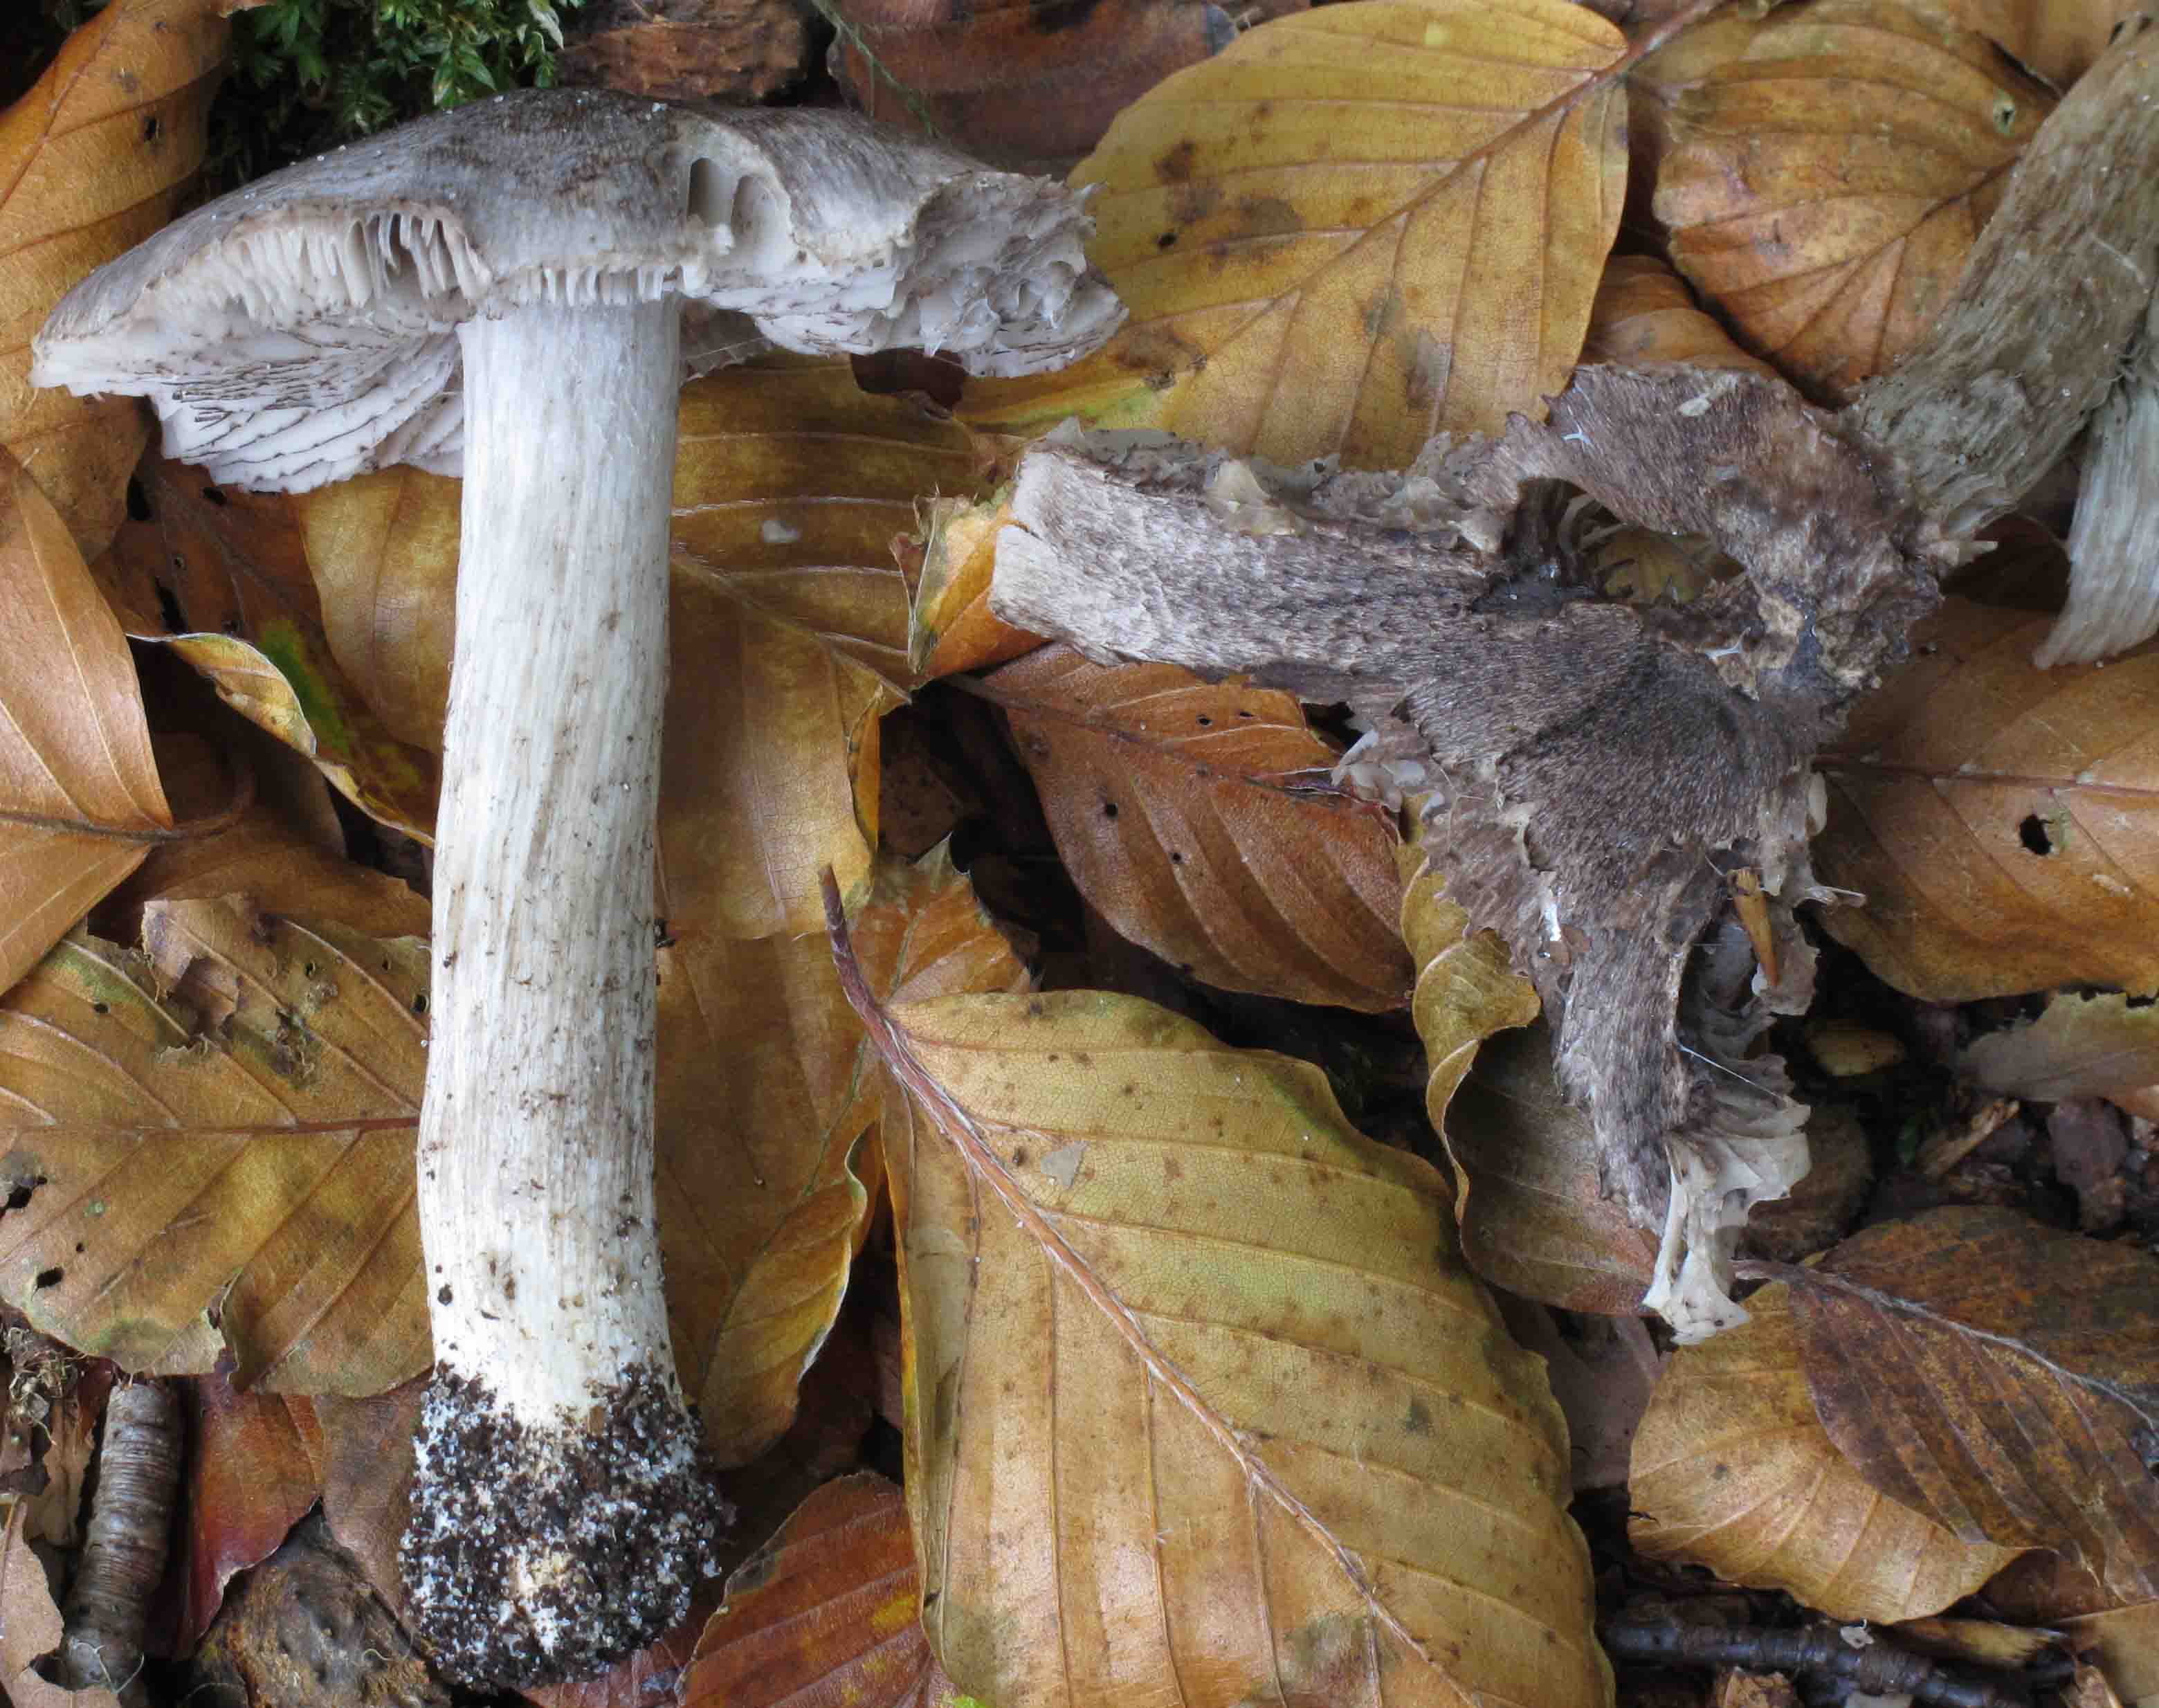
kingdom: Fungi
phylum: Basidiomycota
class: Agaricomycetes
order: Agaricales
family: Tricholomataceae
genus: Tricholoma
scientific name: Tricholoma sciodes
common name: stribet ridderhat
